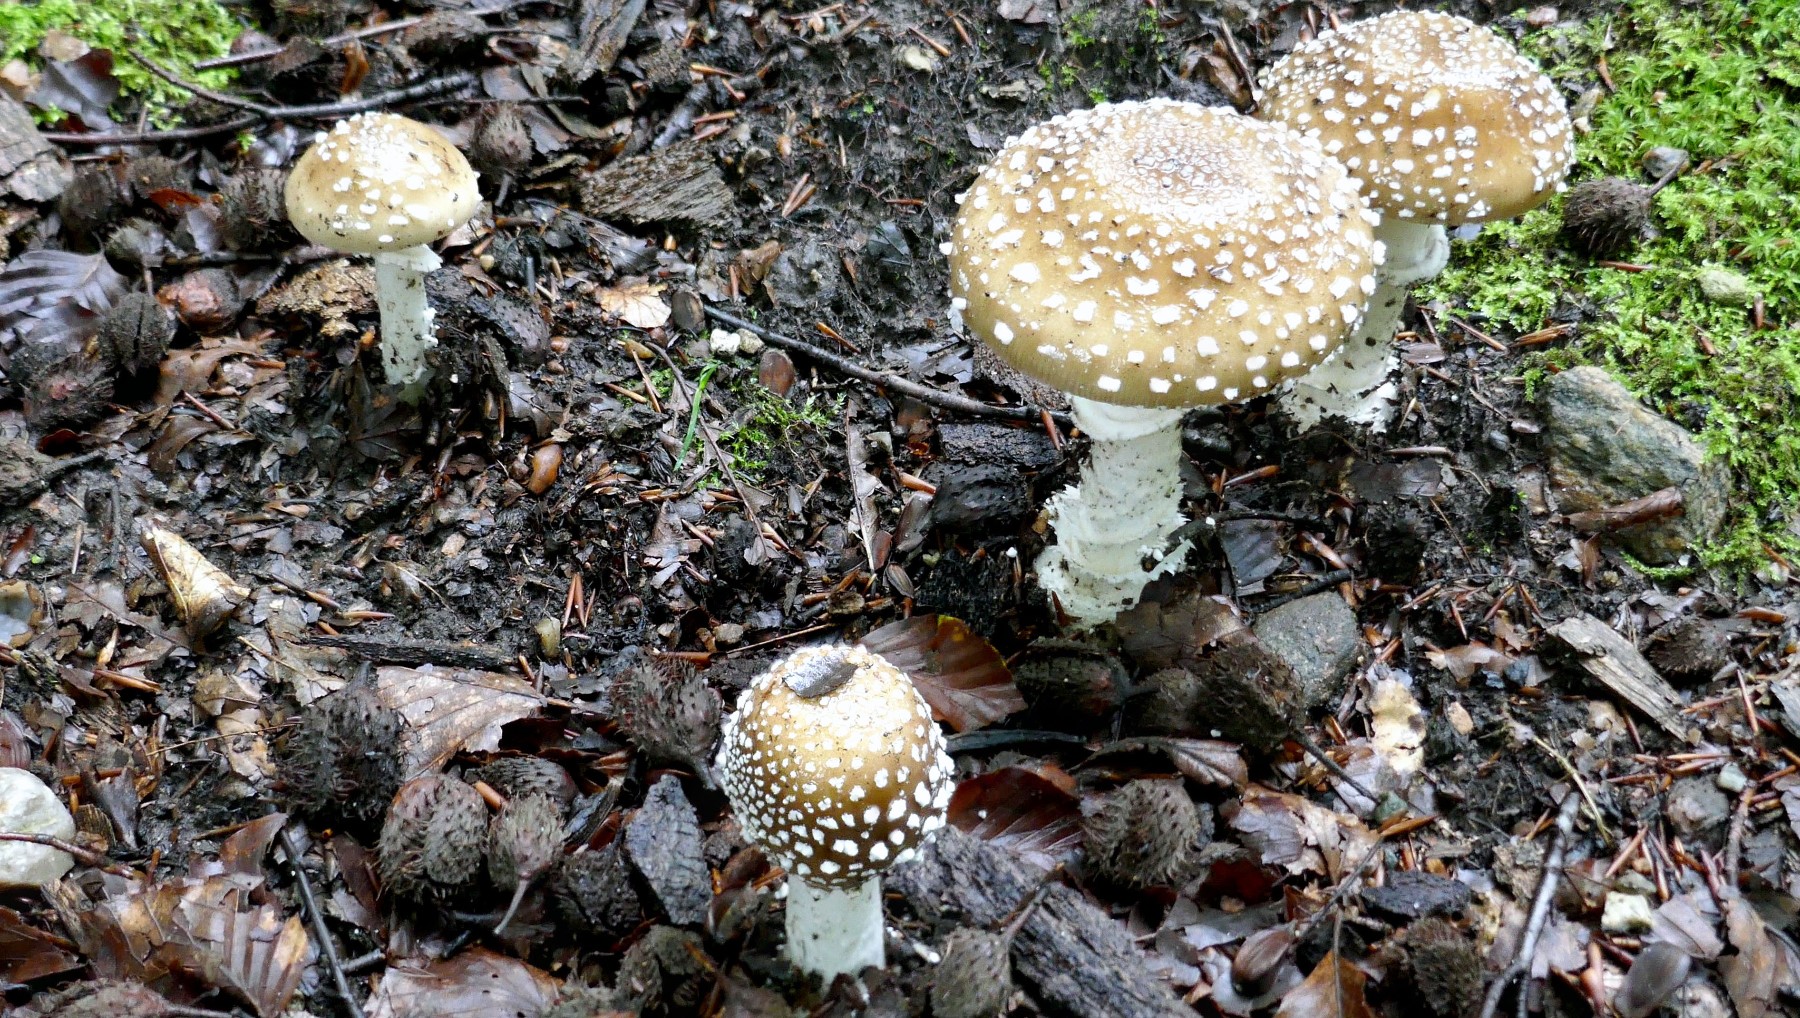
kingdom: Fungi
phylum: Basidiomycota
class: Agaricomycetes
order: Agaricales
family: Amanitaceae
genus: Amanita
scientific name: Amanita pantherina
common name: panter-fluesvamp
